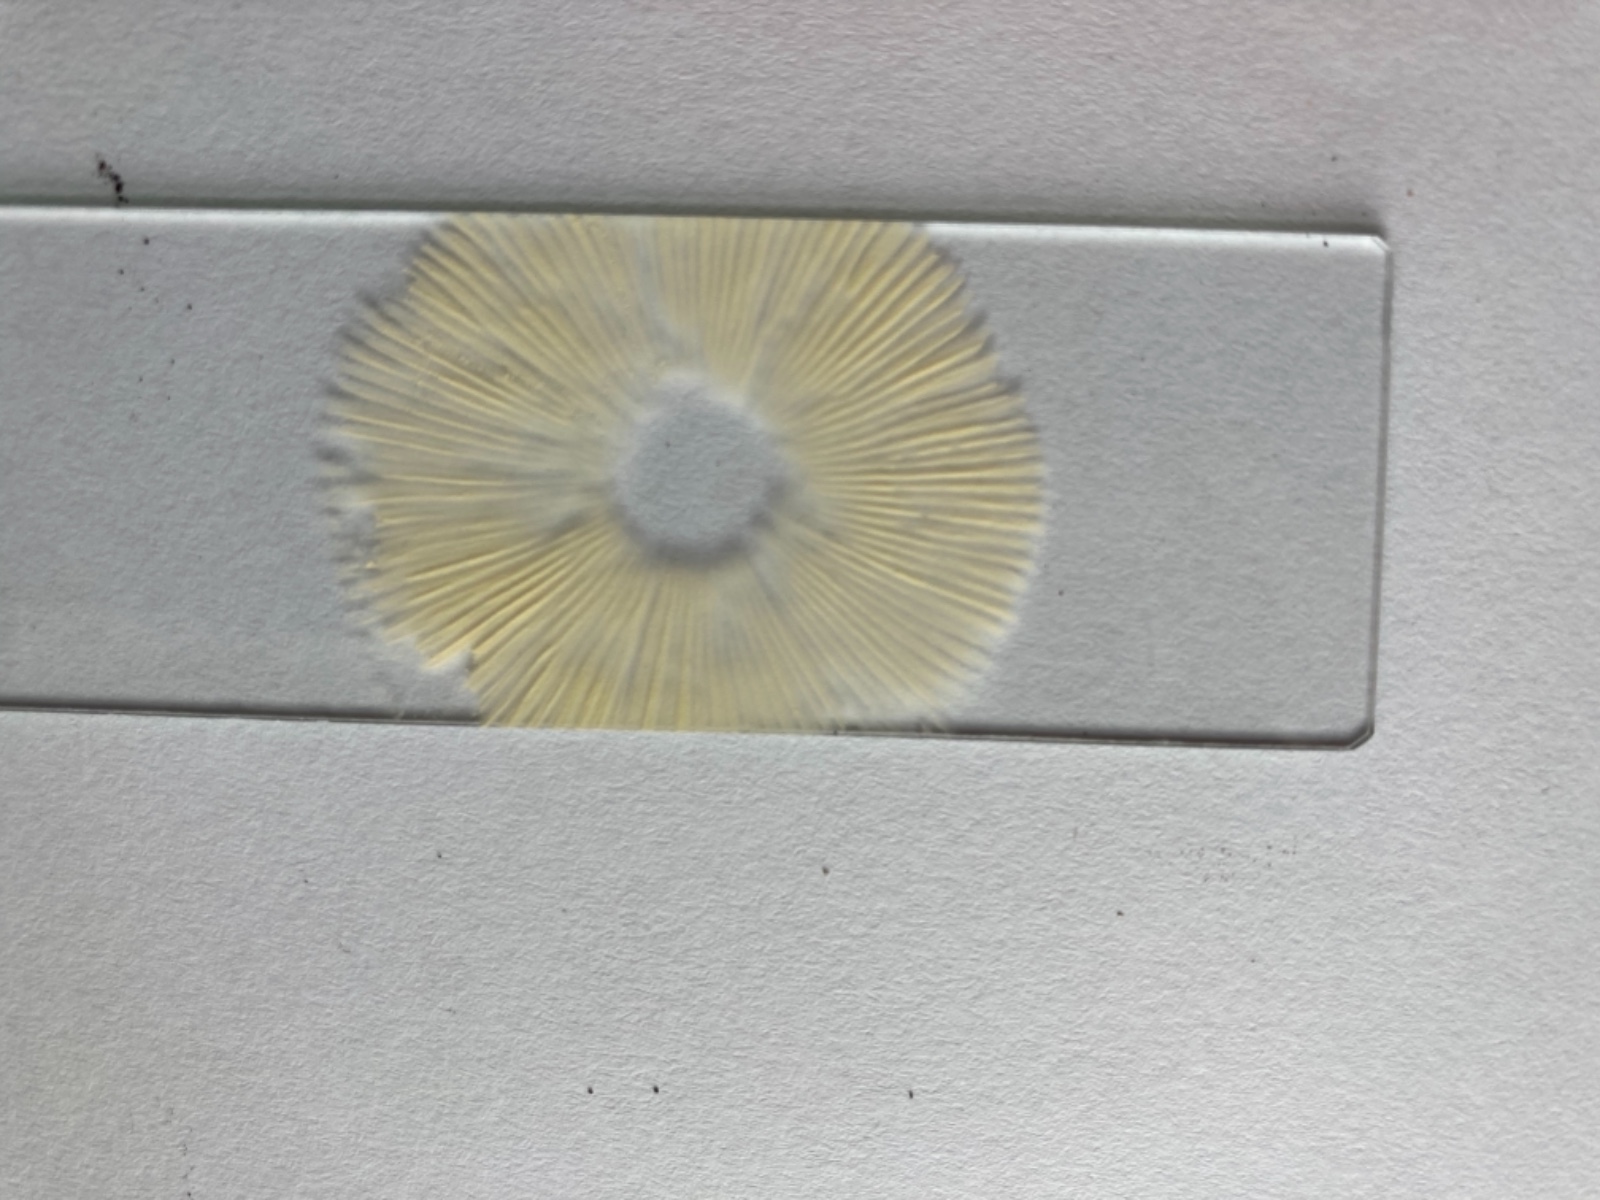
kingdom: Fungi
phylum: Basidiomycota
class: Agaricomycetes
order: Russulales
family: Russulaceae
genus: Russula
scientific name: Russula saliceticola
